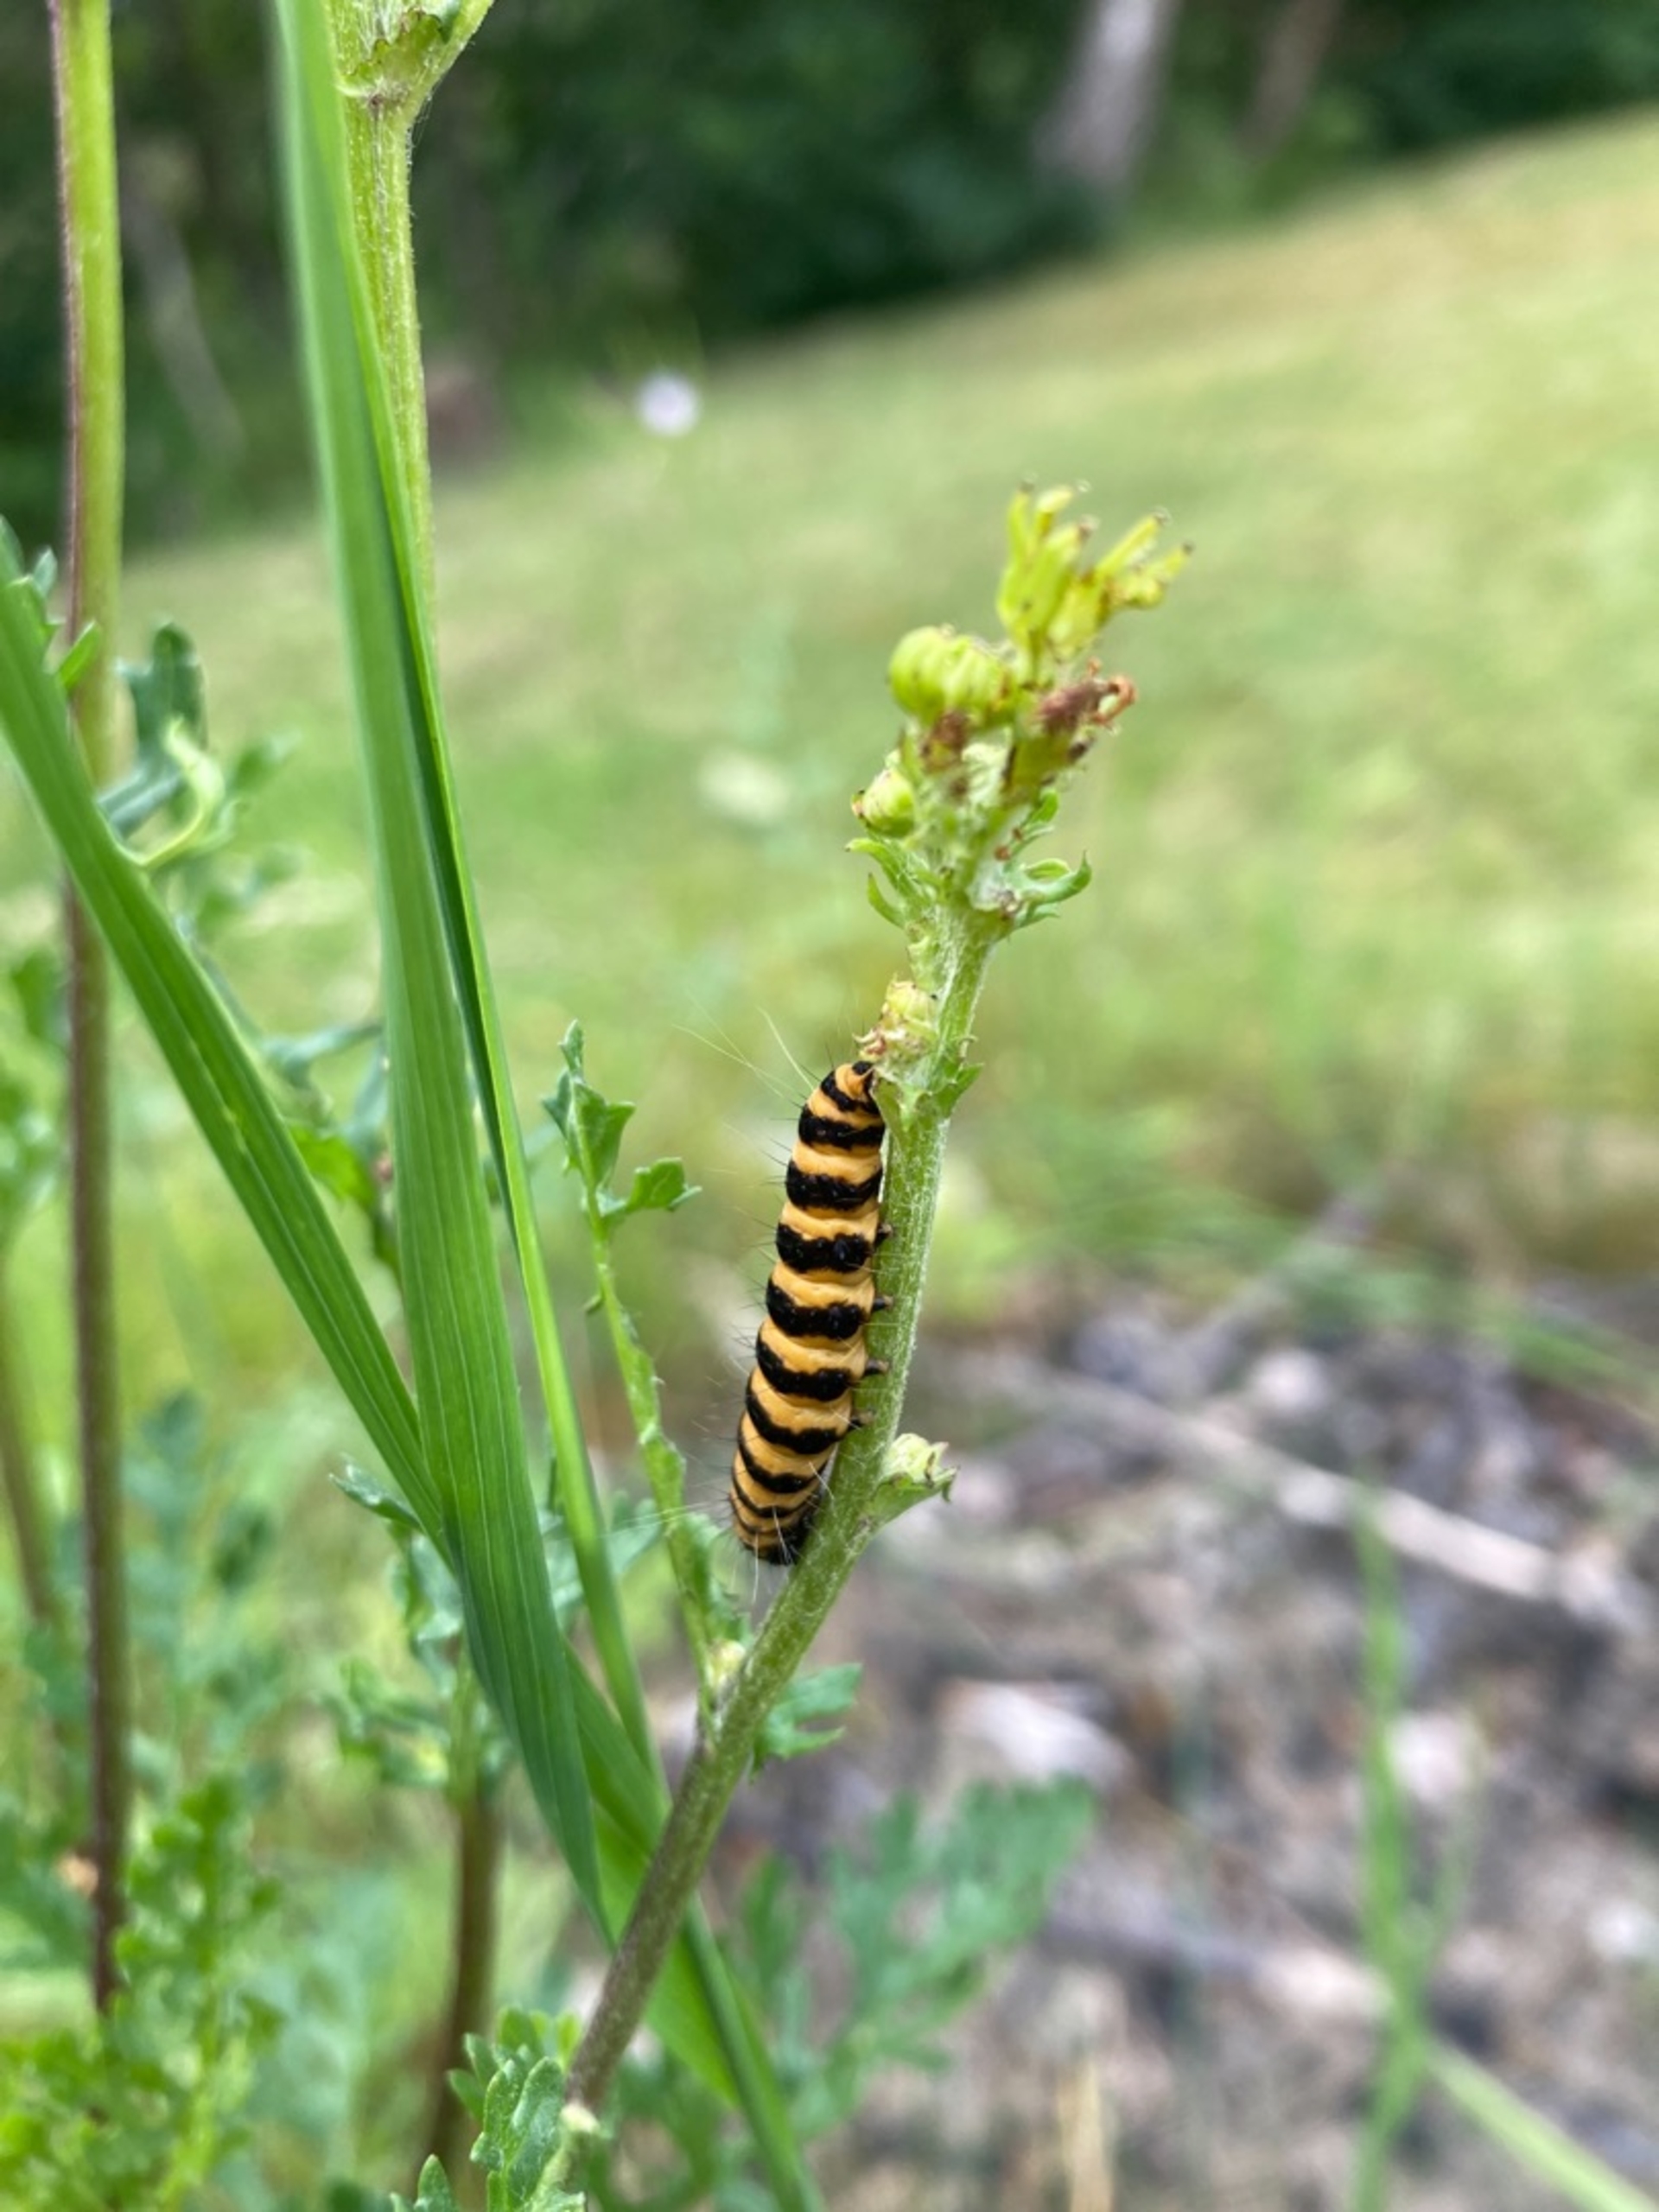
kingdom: Animalia
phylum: Arthropoda
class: Insecta
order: Lepidoptera
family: Erebidae
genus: Tyria
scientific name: Tyria jacobaeae
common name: Blodplet
